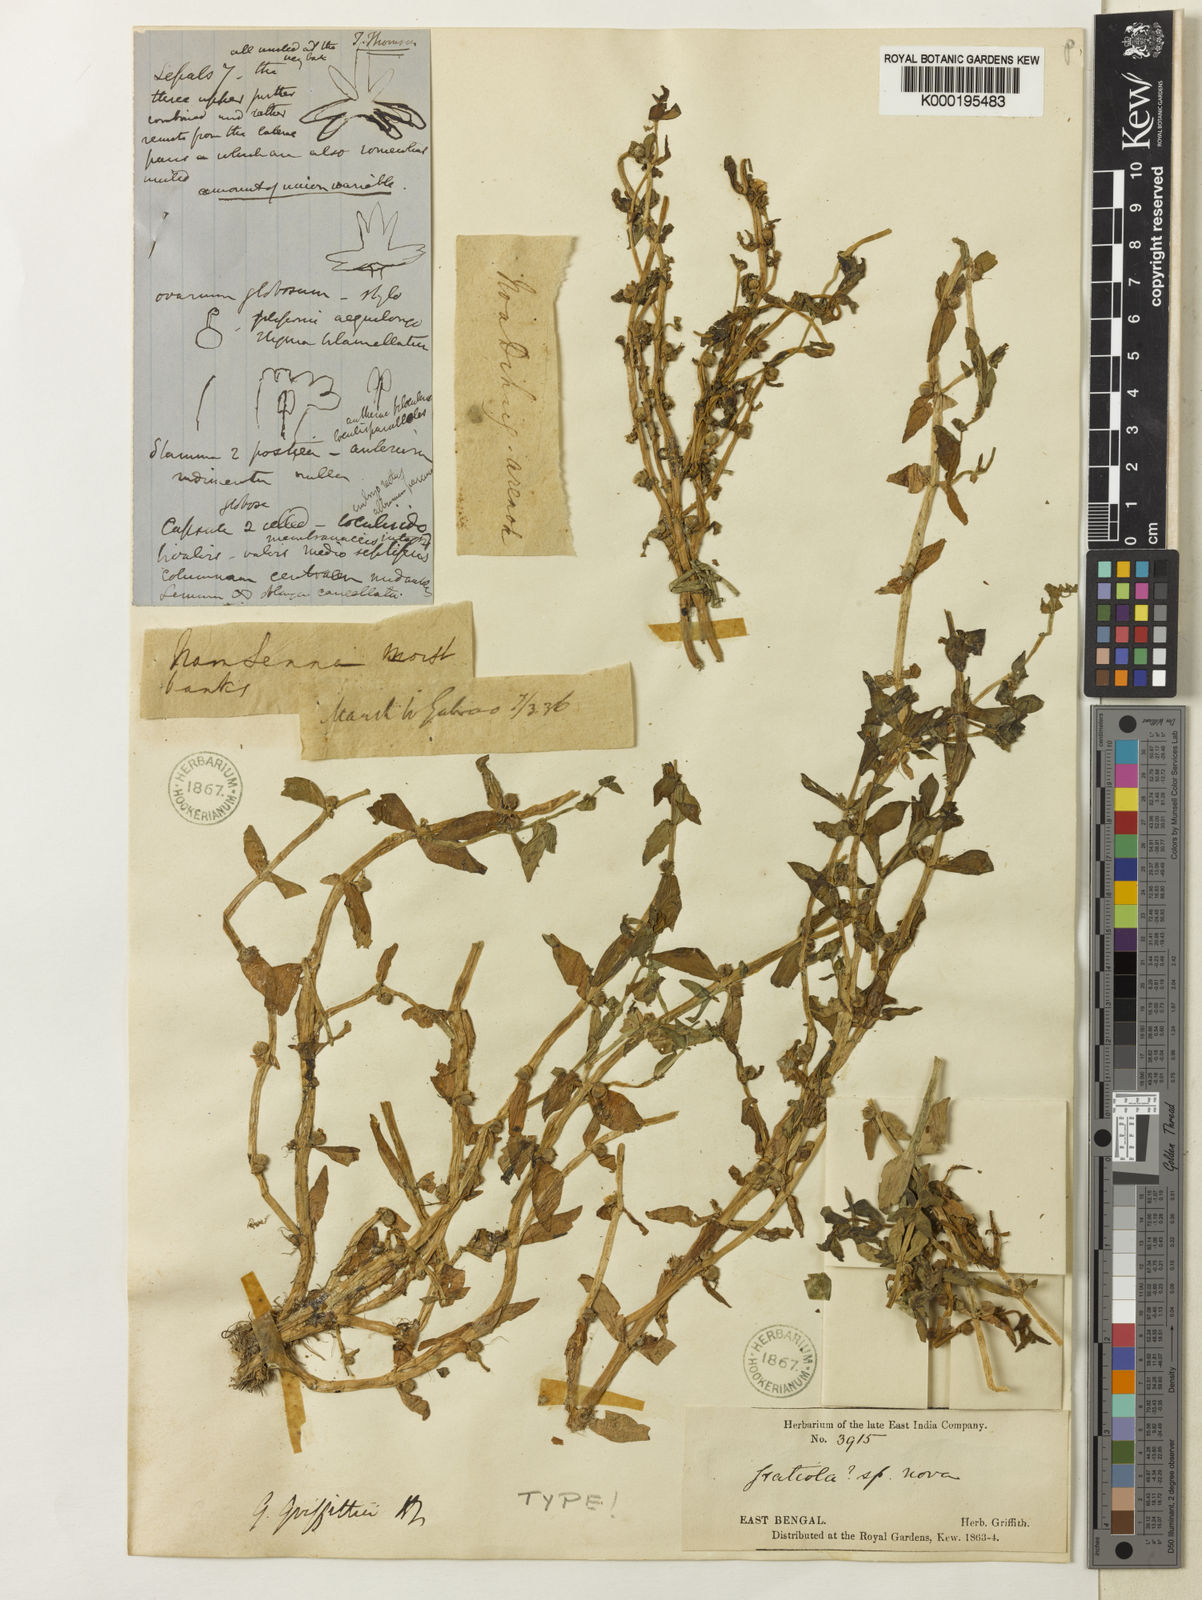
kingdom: Plantae
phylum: Tracheophyta
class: Magnoliopsida
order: Lamiales
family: Plantaginaceae
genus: Gratiola
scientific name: Gratiola griffithii
